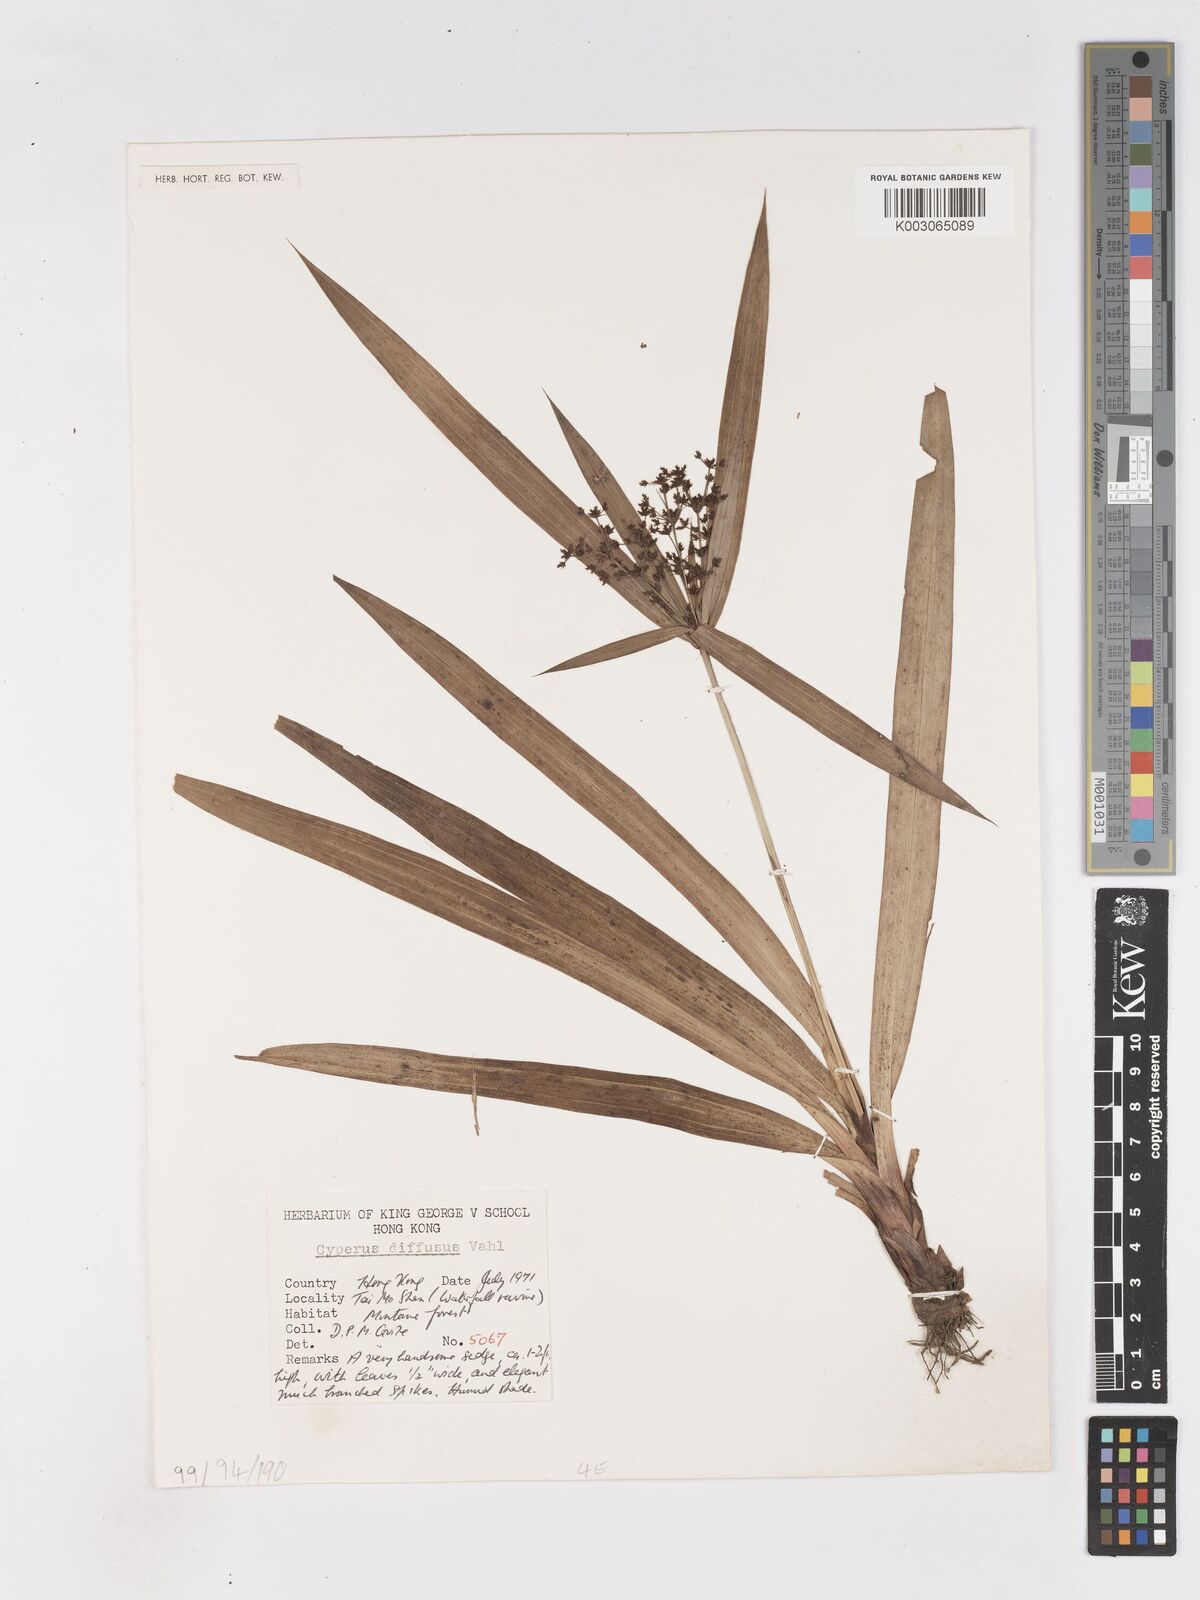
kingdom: Plantae
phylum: Tracheophyta
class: Liliopsida
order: Poales
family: Cyperaceae
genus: Cyperus
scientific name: Cyperus difformis
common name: Variable flatsedge
